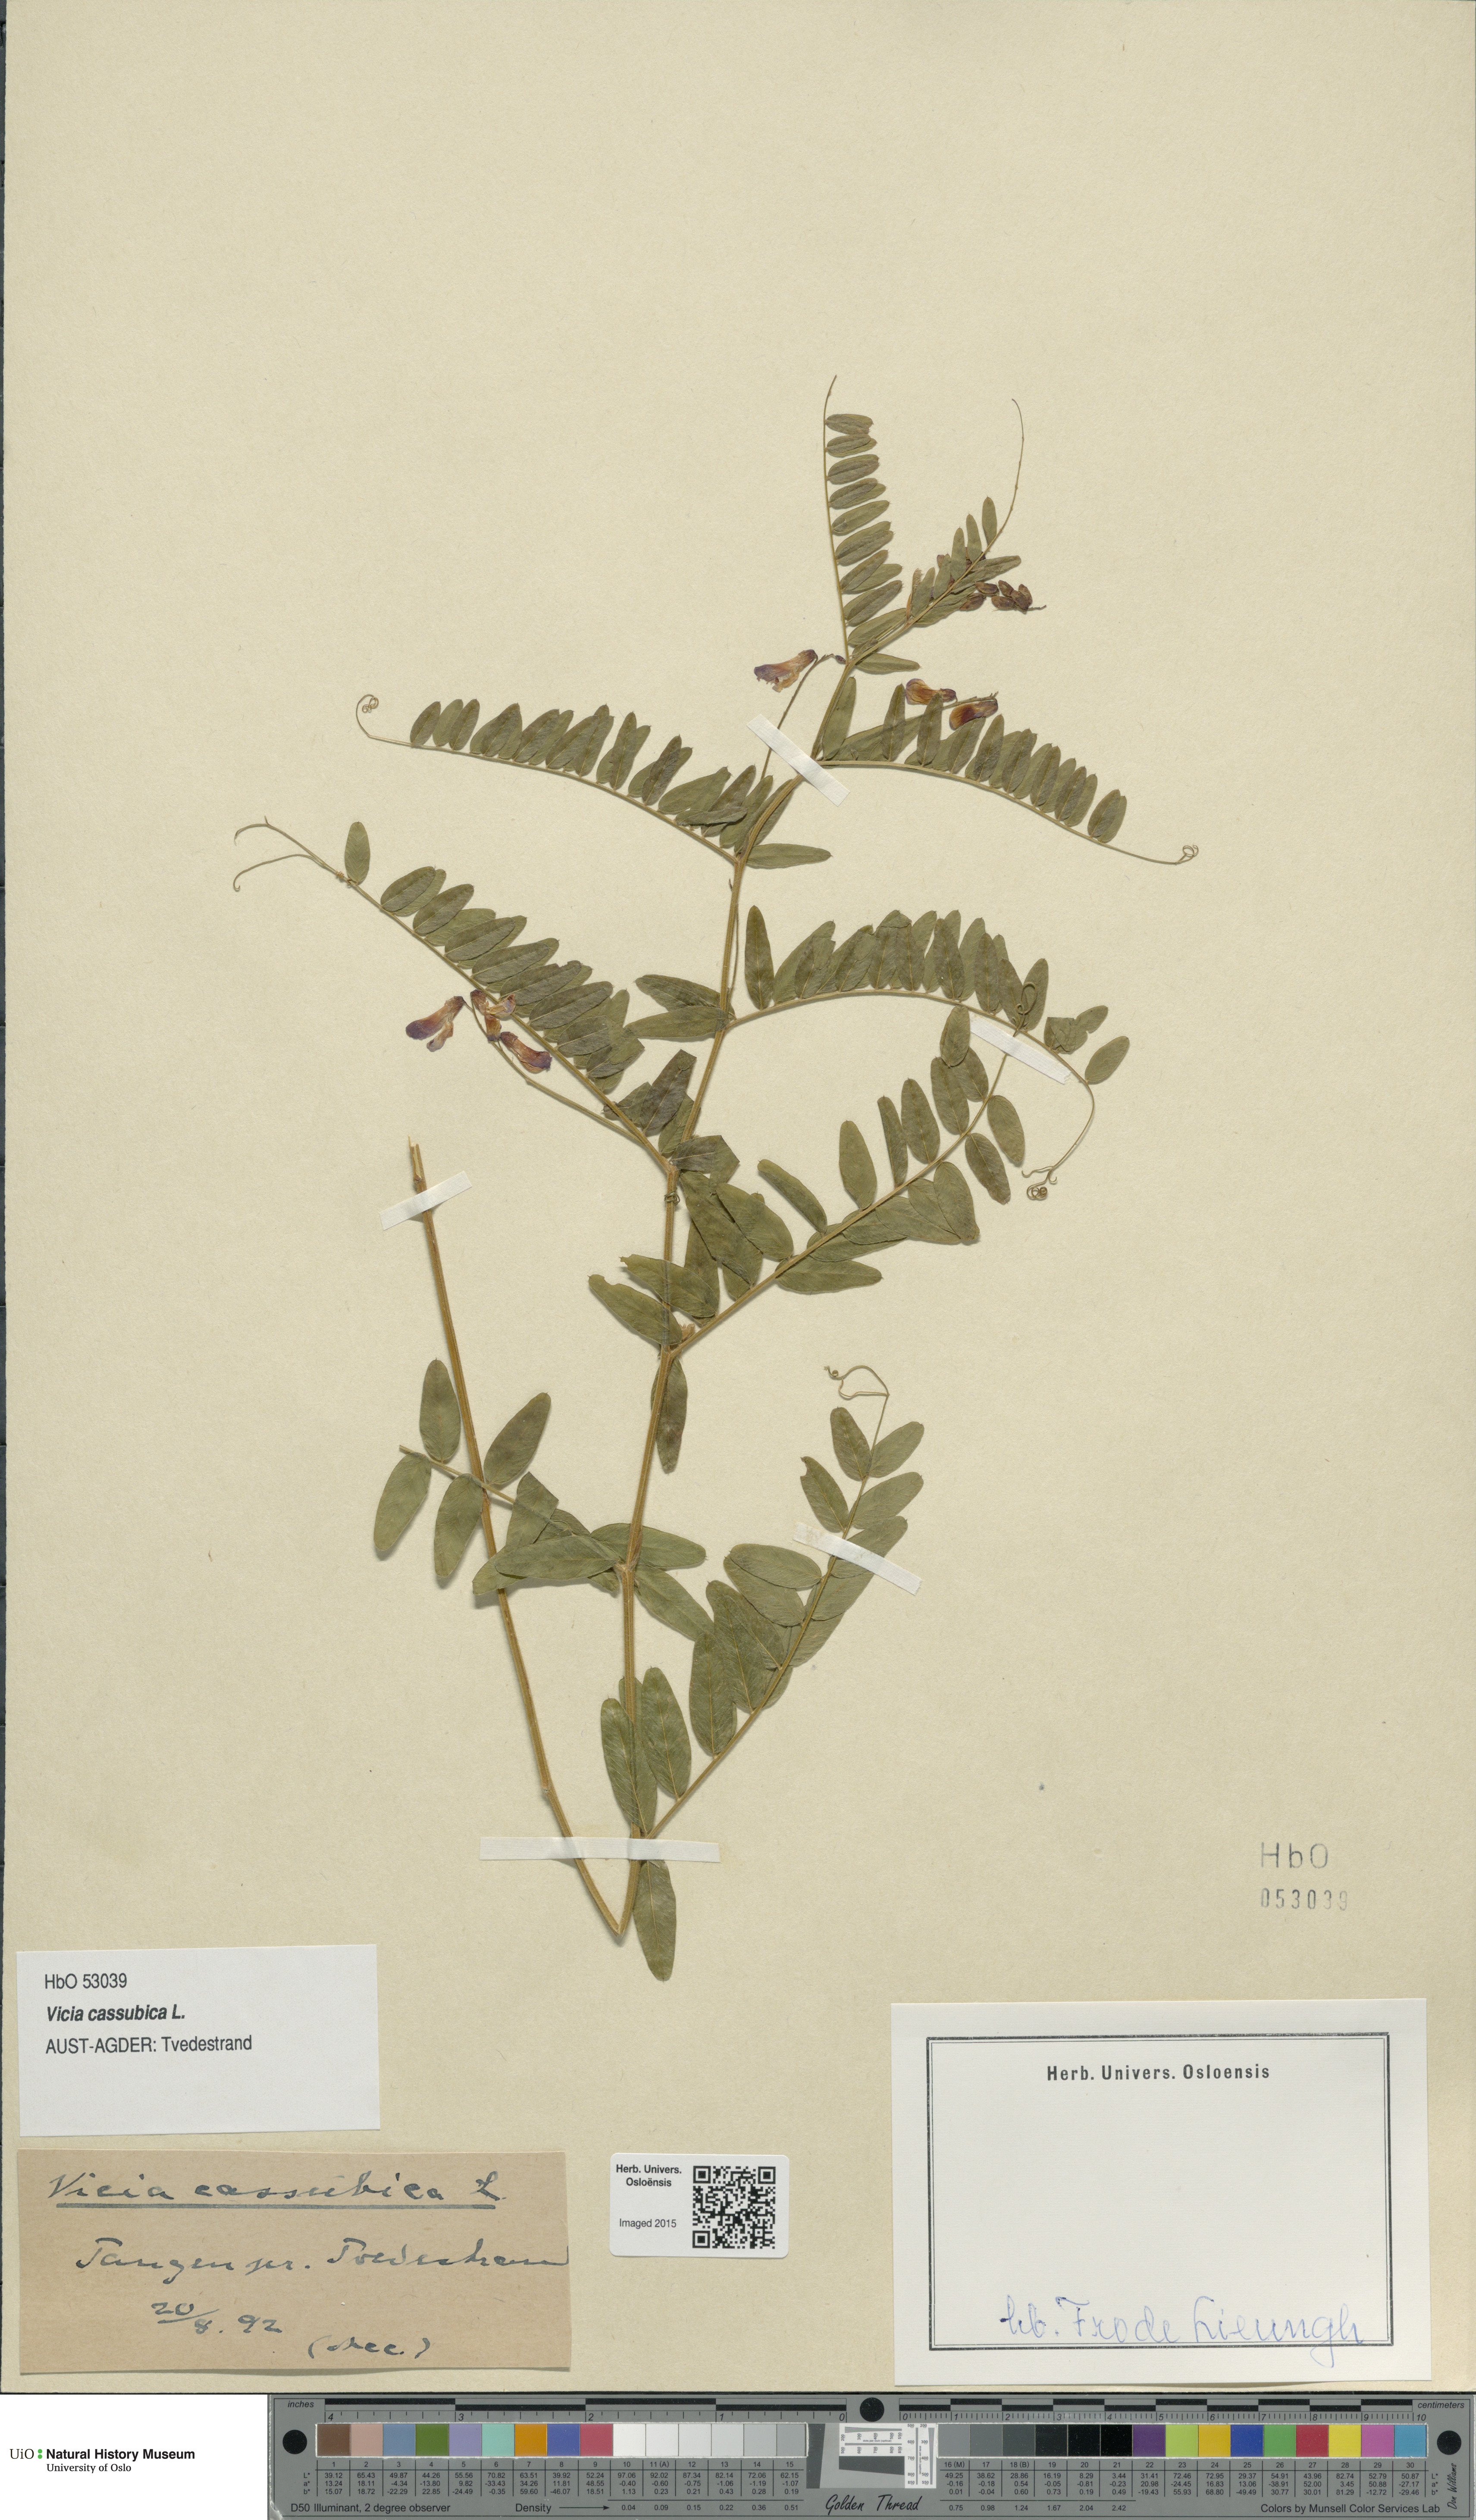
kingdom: Plantae
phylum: Tracheophyta
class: Magnoliopsida
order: Fabales
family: Fabaceae
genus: Vicia
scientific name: Vicia cassubica
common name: Danzig vetch
